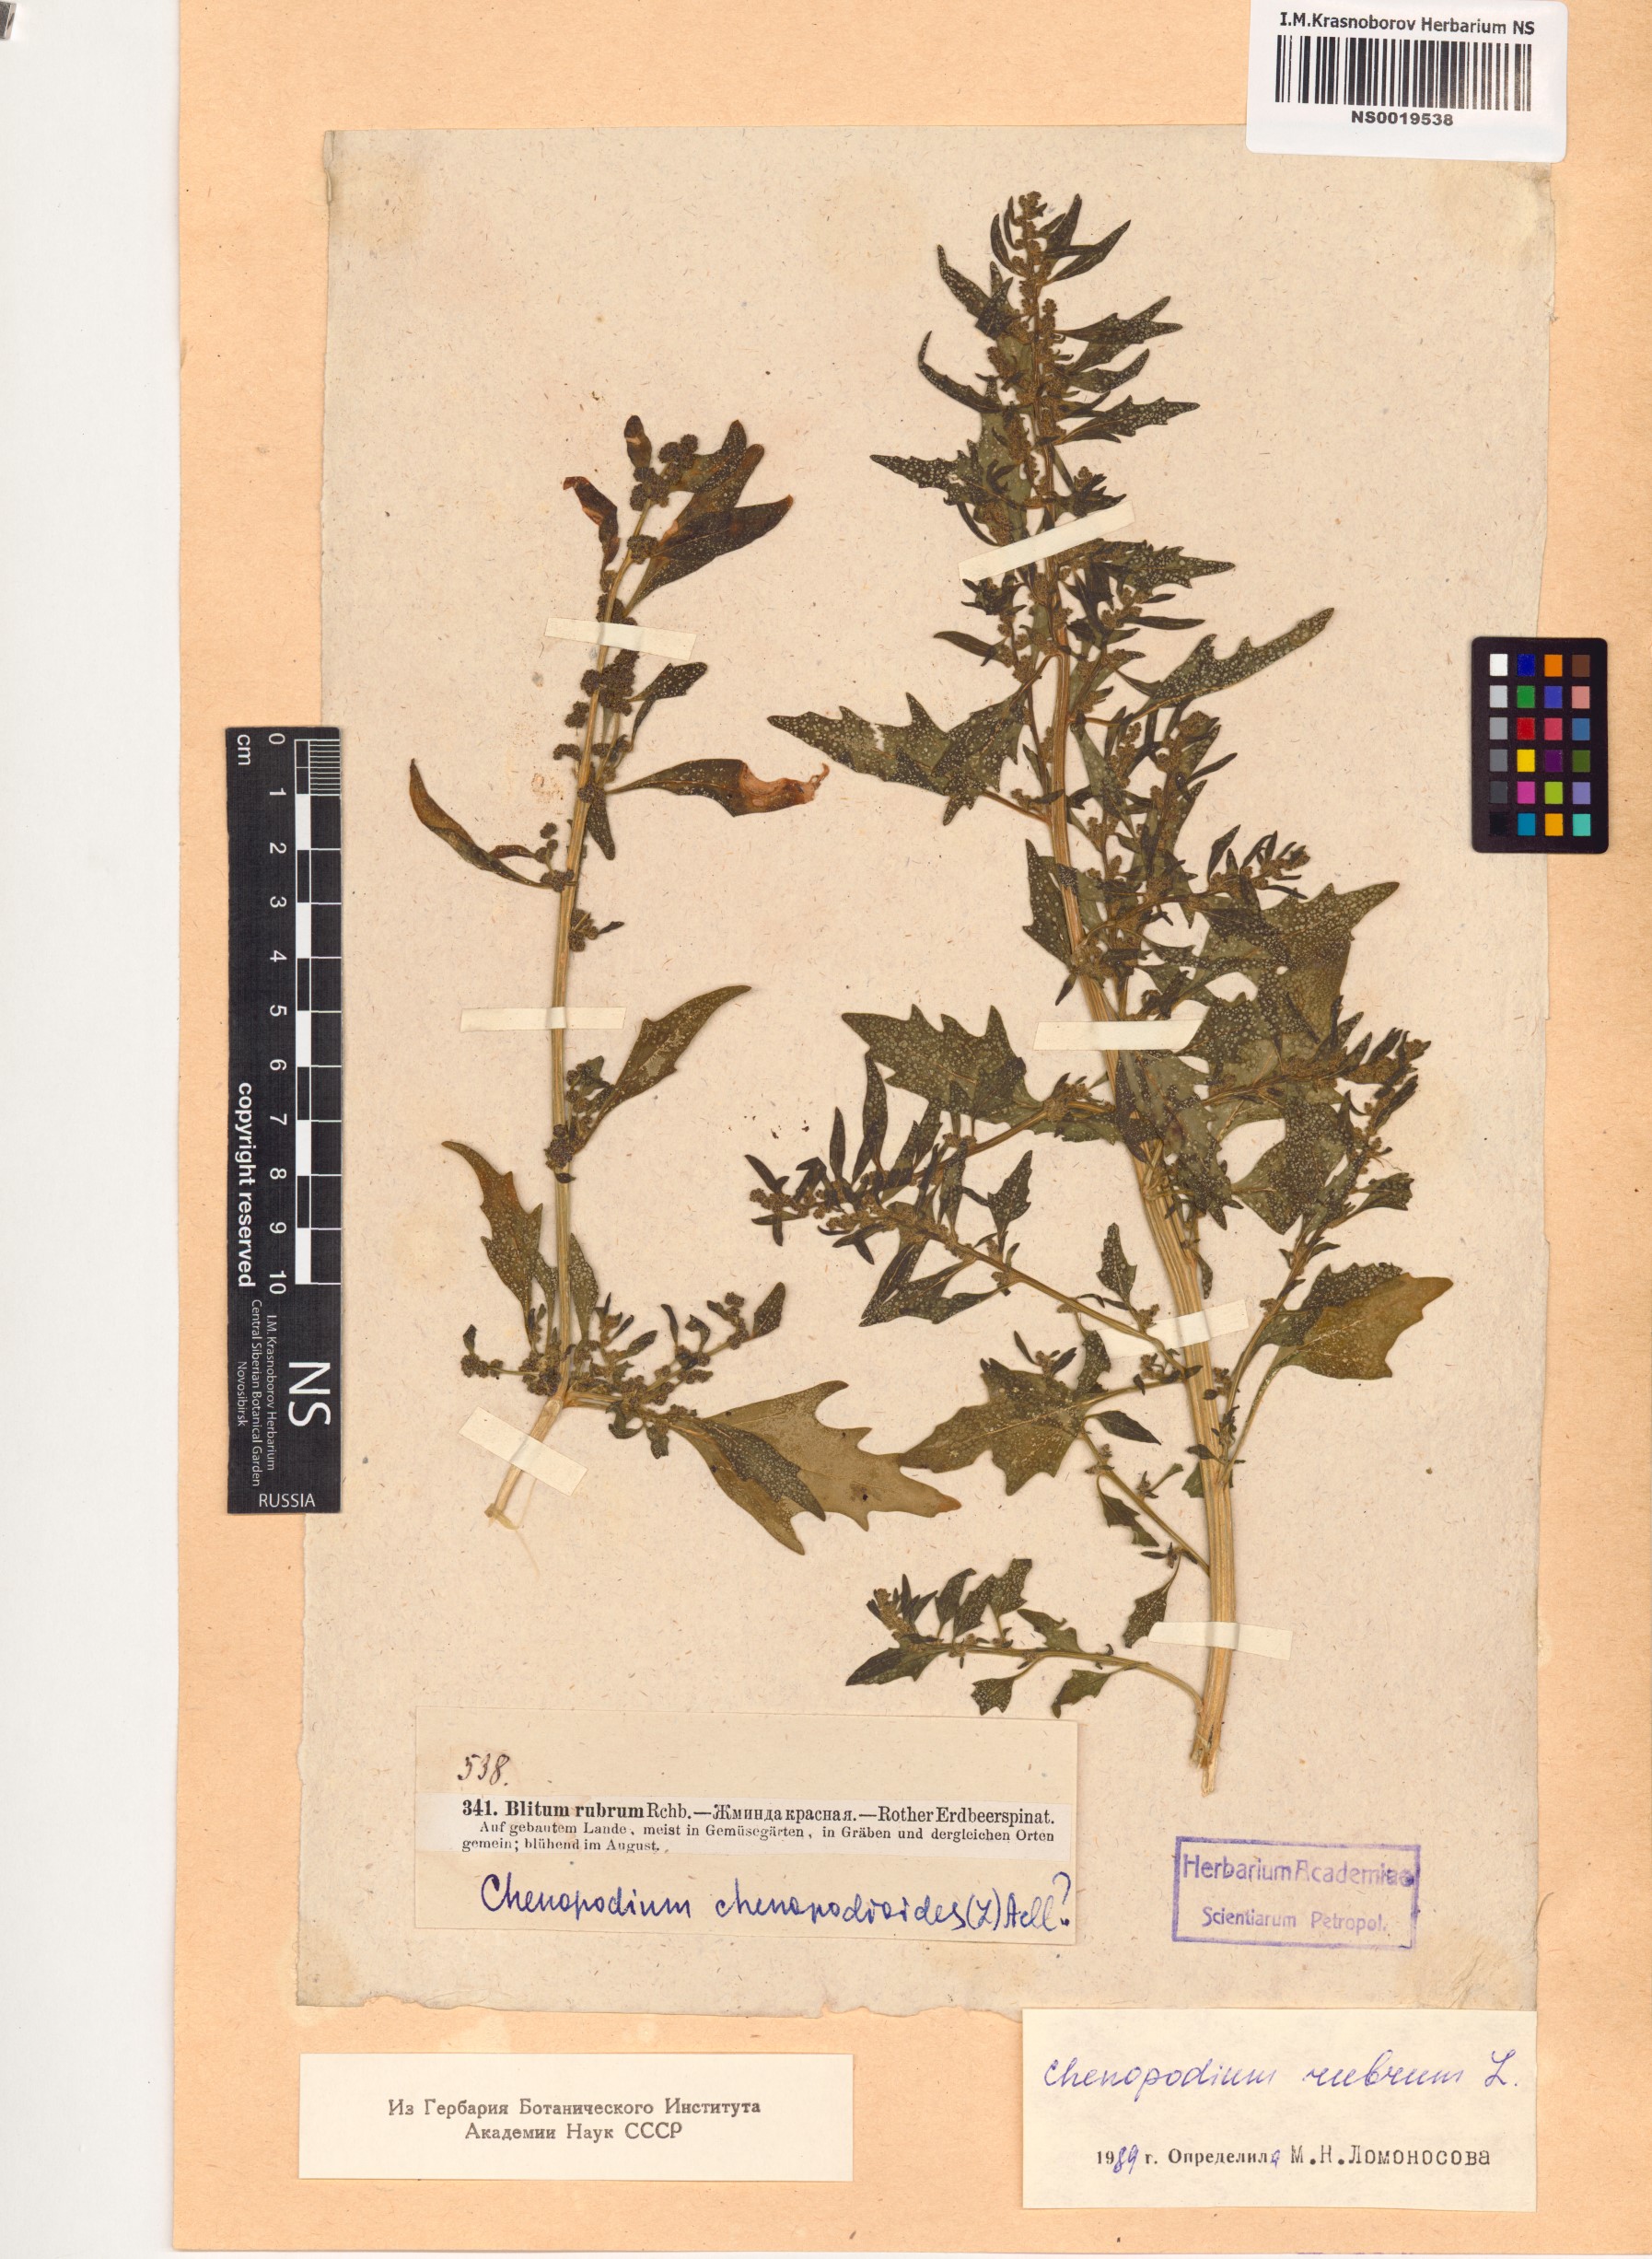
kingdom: Plantae
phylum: Tracheophyta
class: Magnoliopsida
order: Caryophyllales
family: Amaranthaceae
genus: Oxybasis
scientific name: Oxybasis rubra
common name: Red goosefoot
